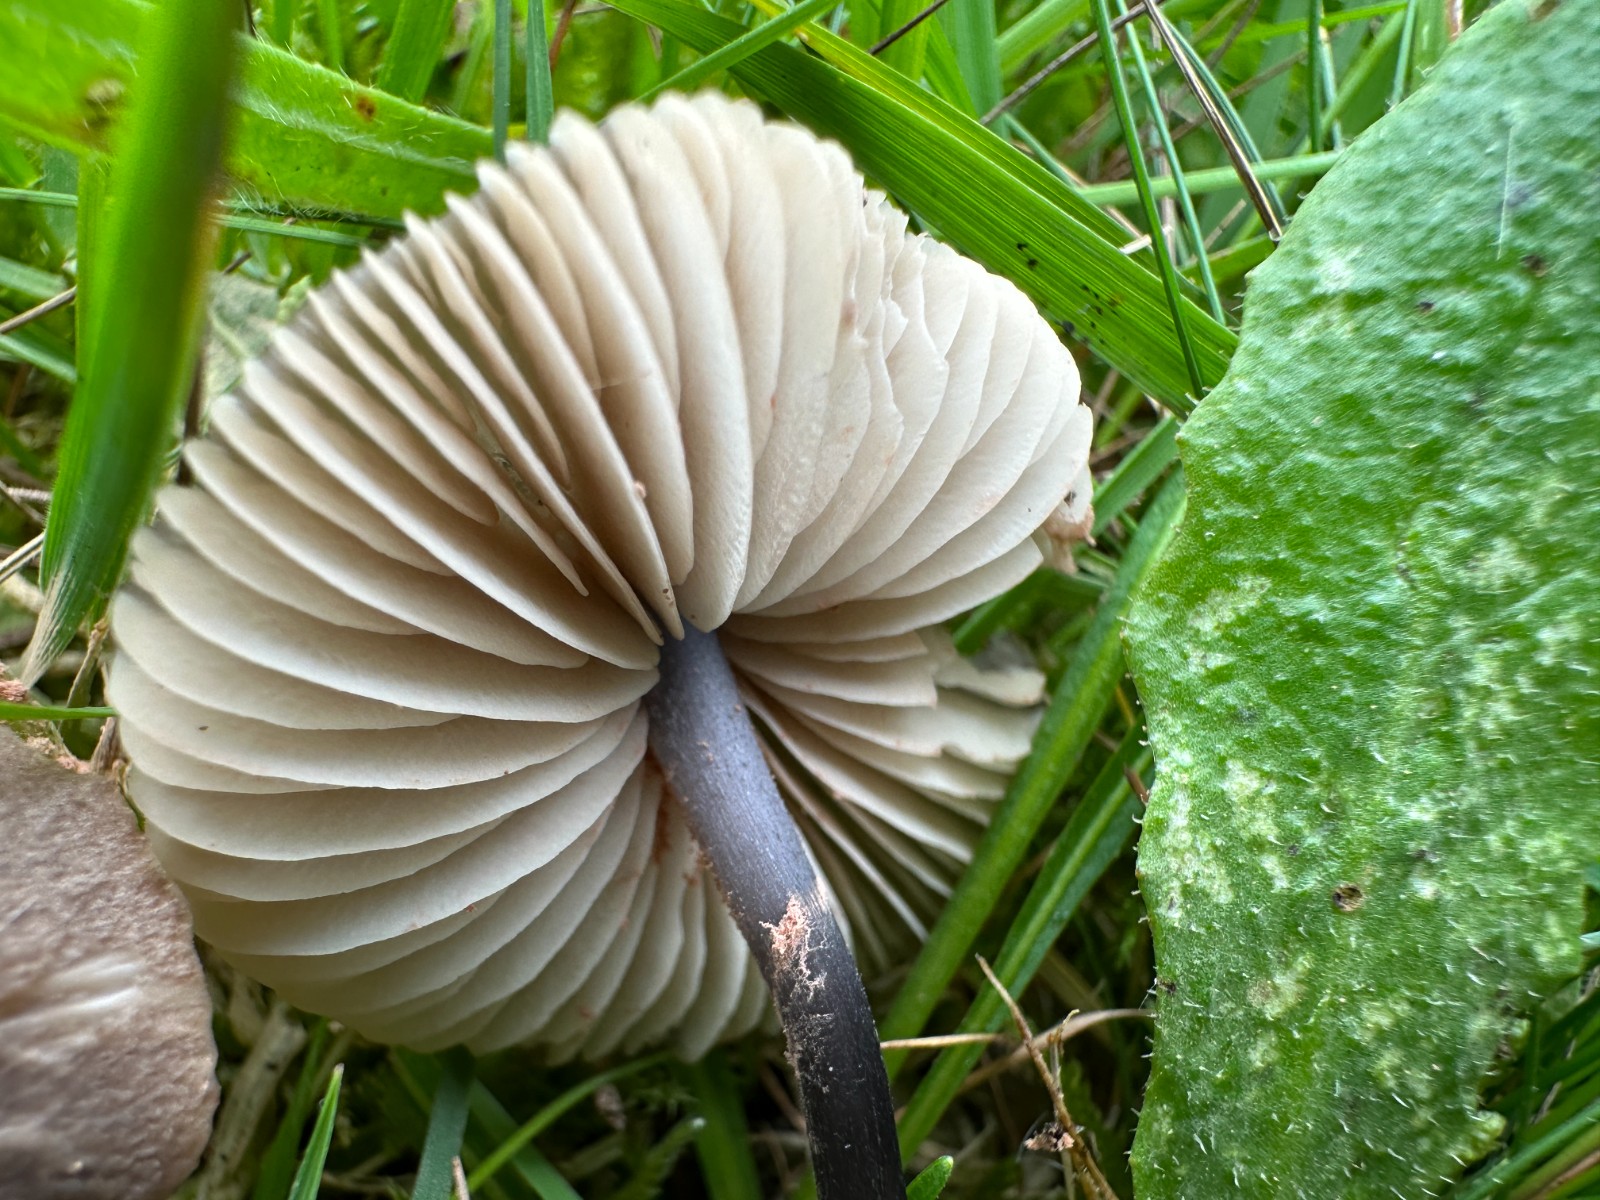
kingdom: Fungi
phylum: Basidiomycota
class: Agaricomycetes
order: Agaricales
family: Entolomataceae
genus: Entoloma
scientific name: Entoloma
